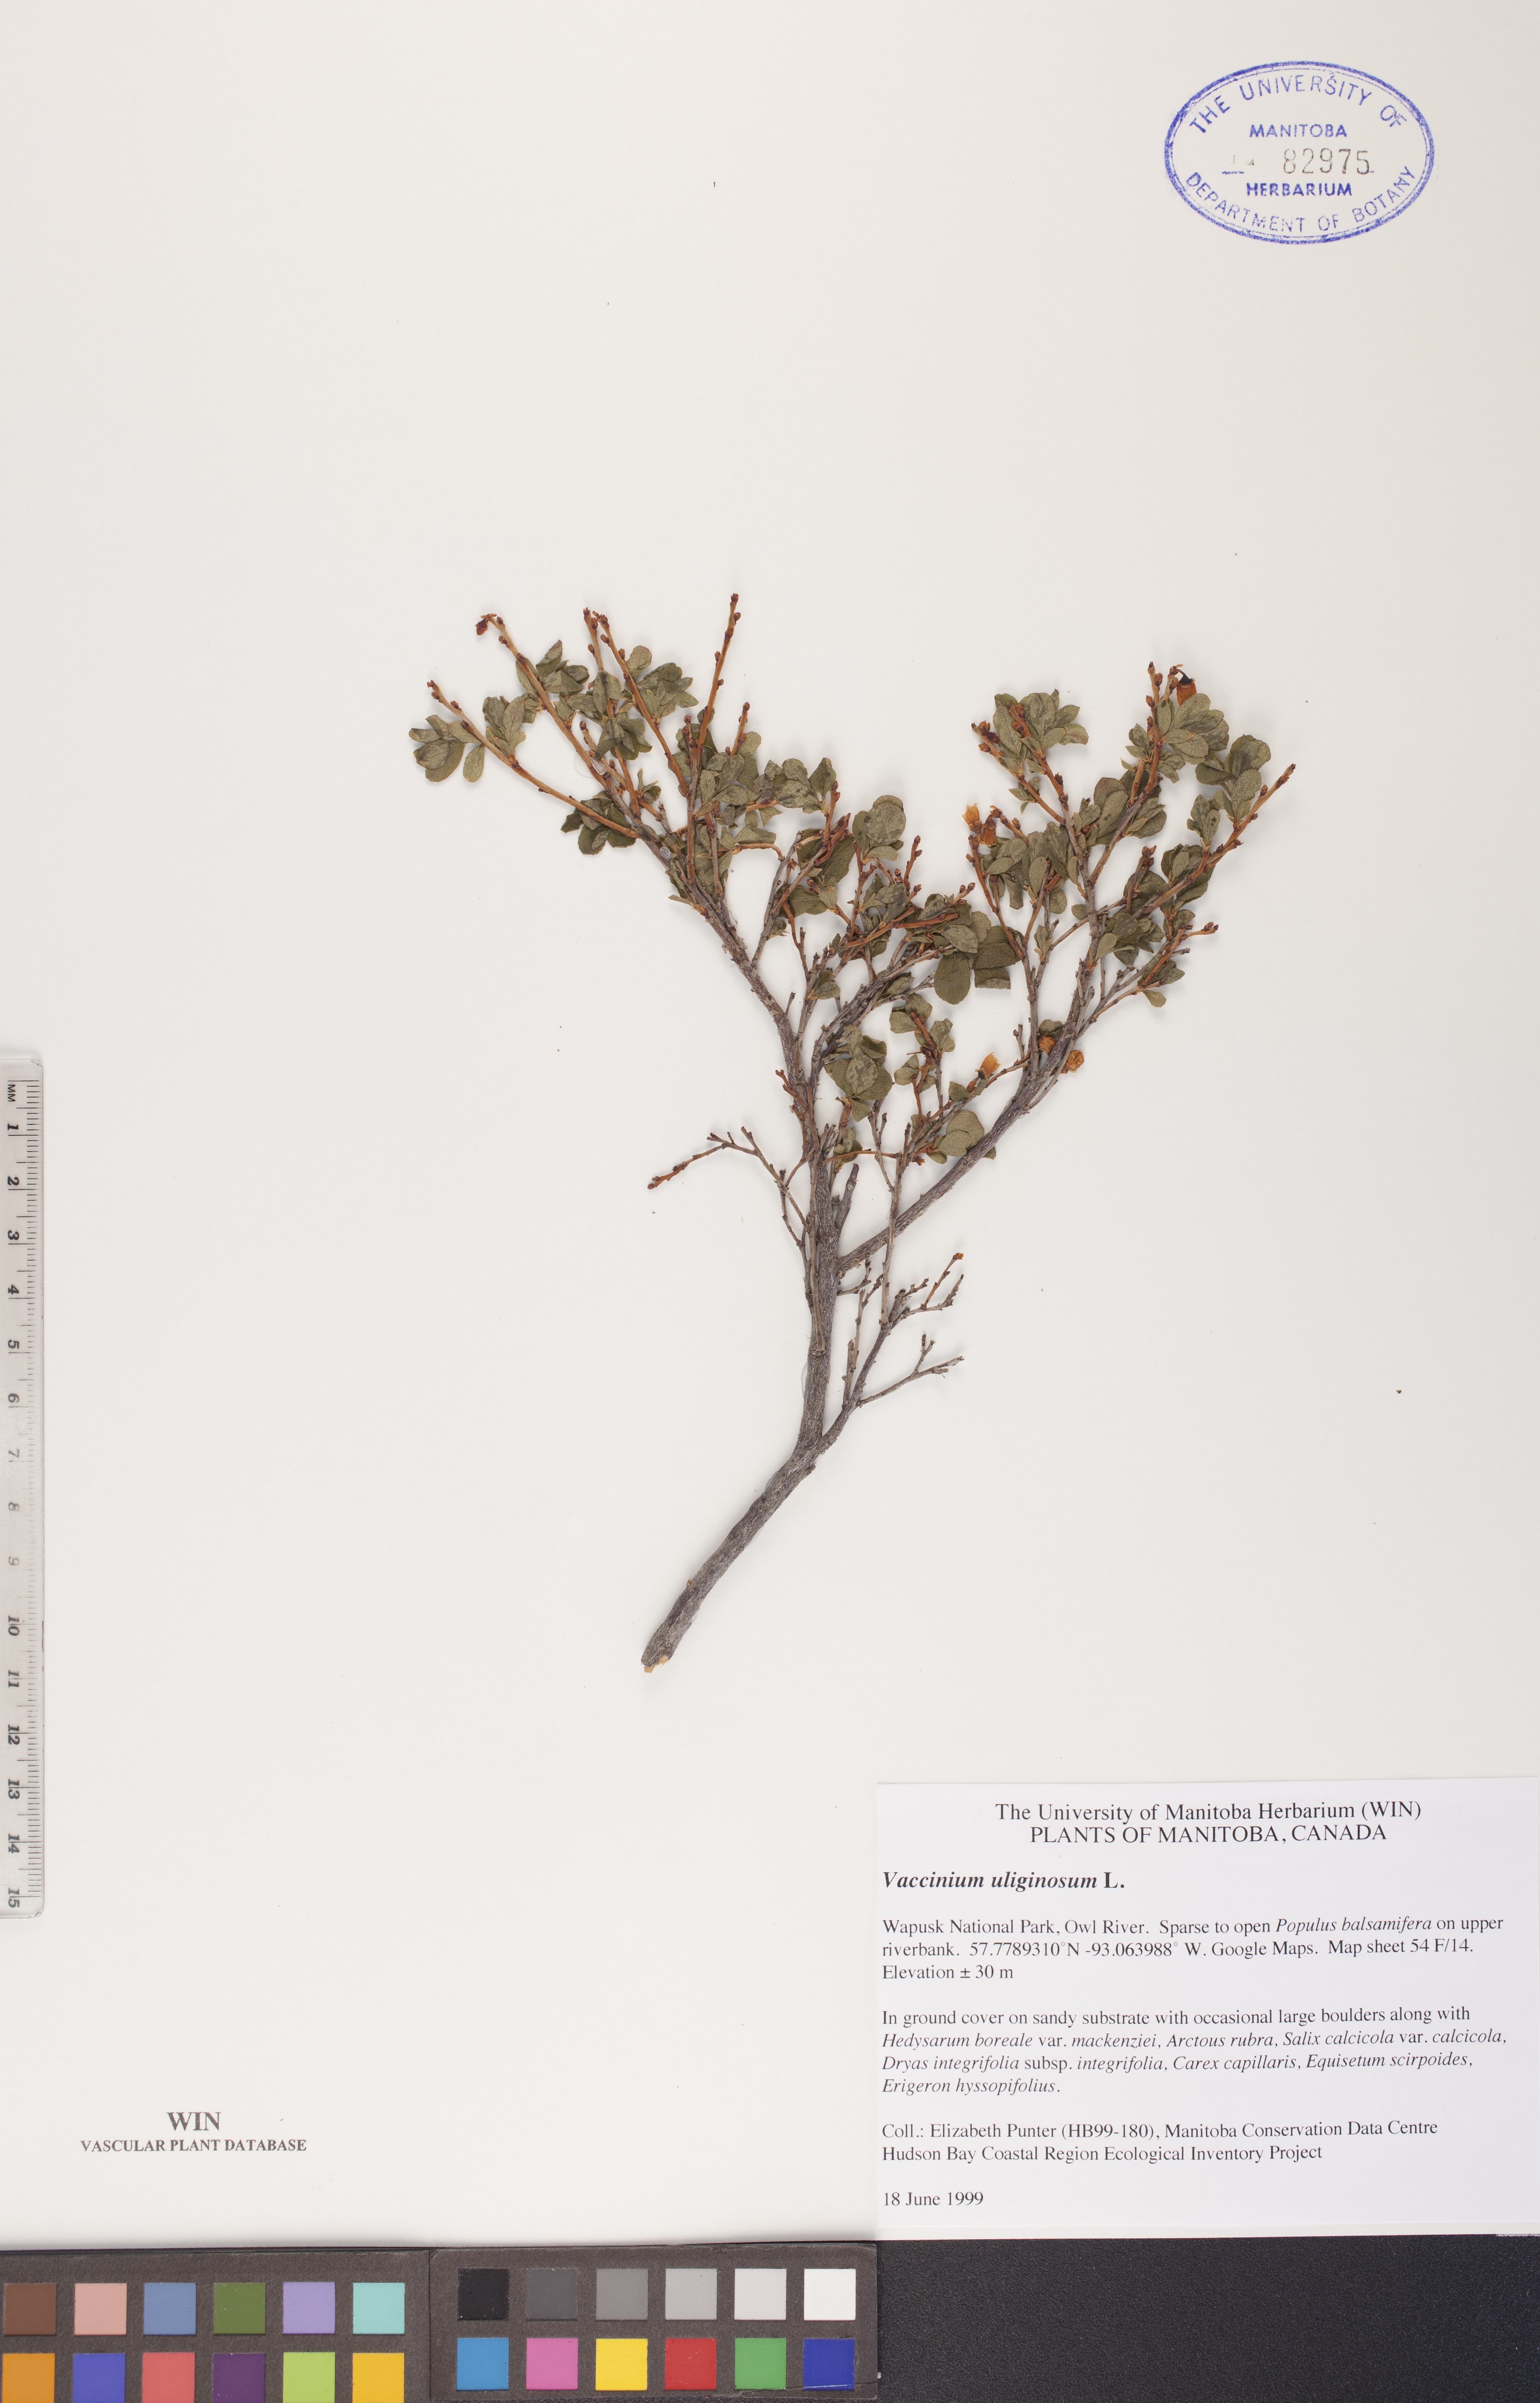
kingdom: Plantae
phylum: Tracheophyta
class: Magnoliopsida
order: Ericales
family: Ericaceae
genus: Vaccinium
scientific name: Vaccinium uliginosum
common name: Bog bilberry
